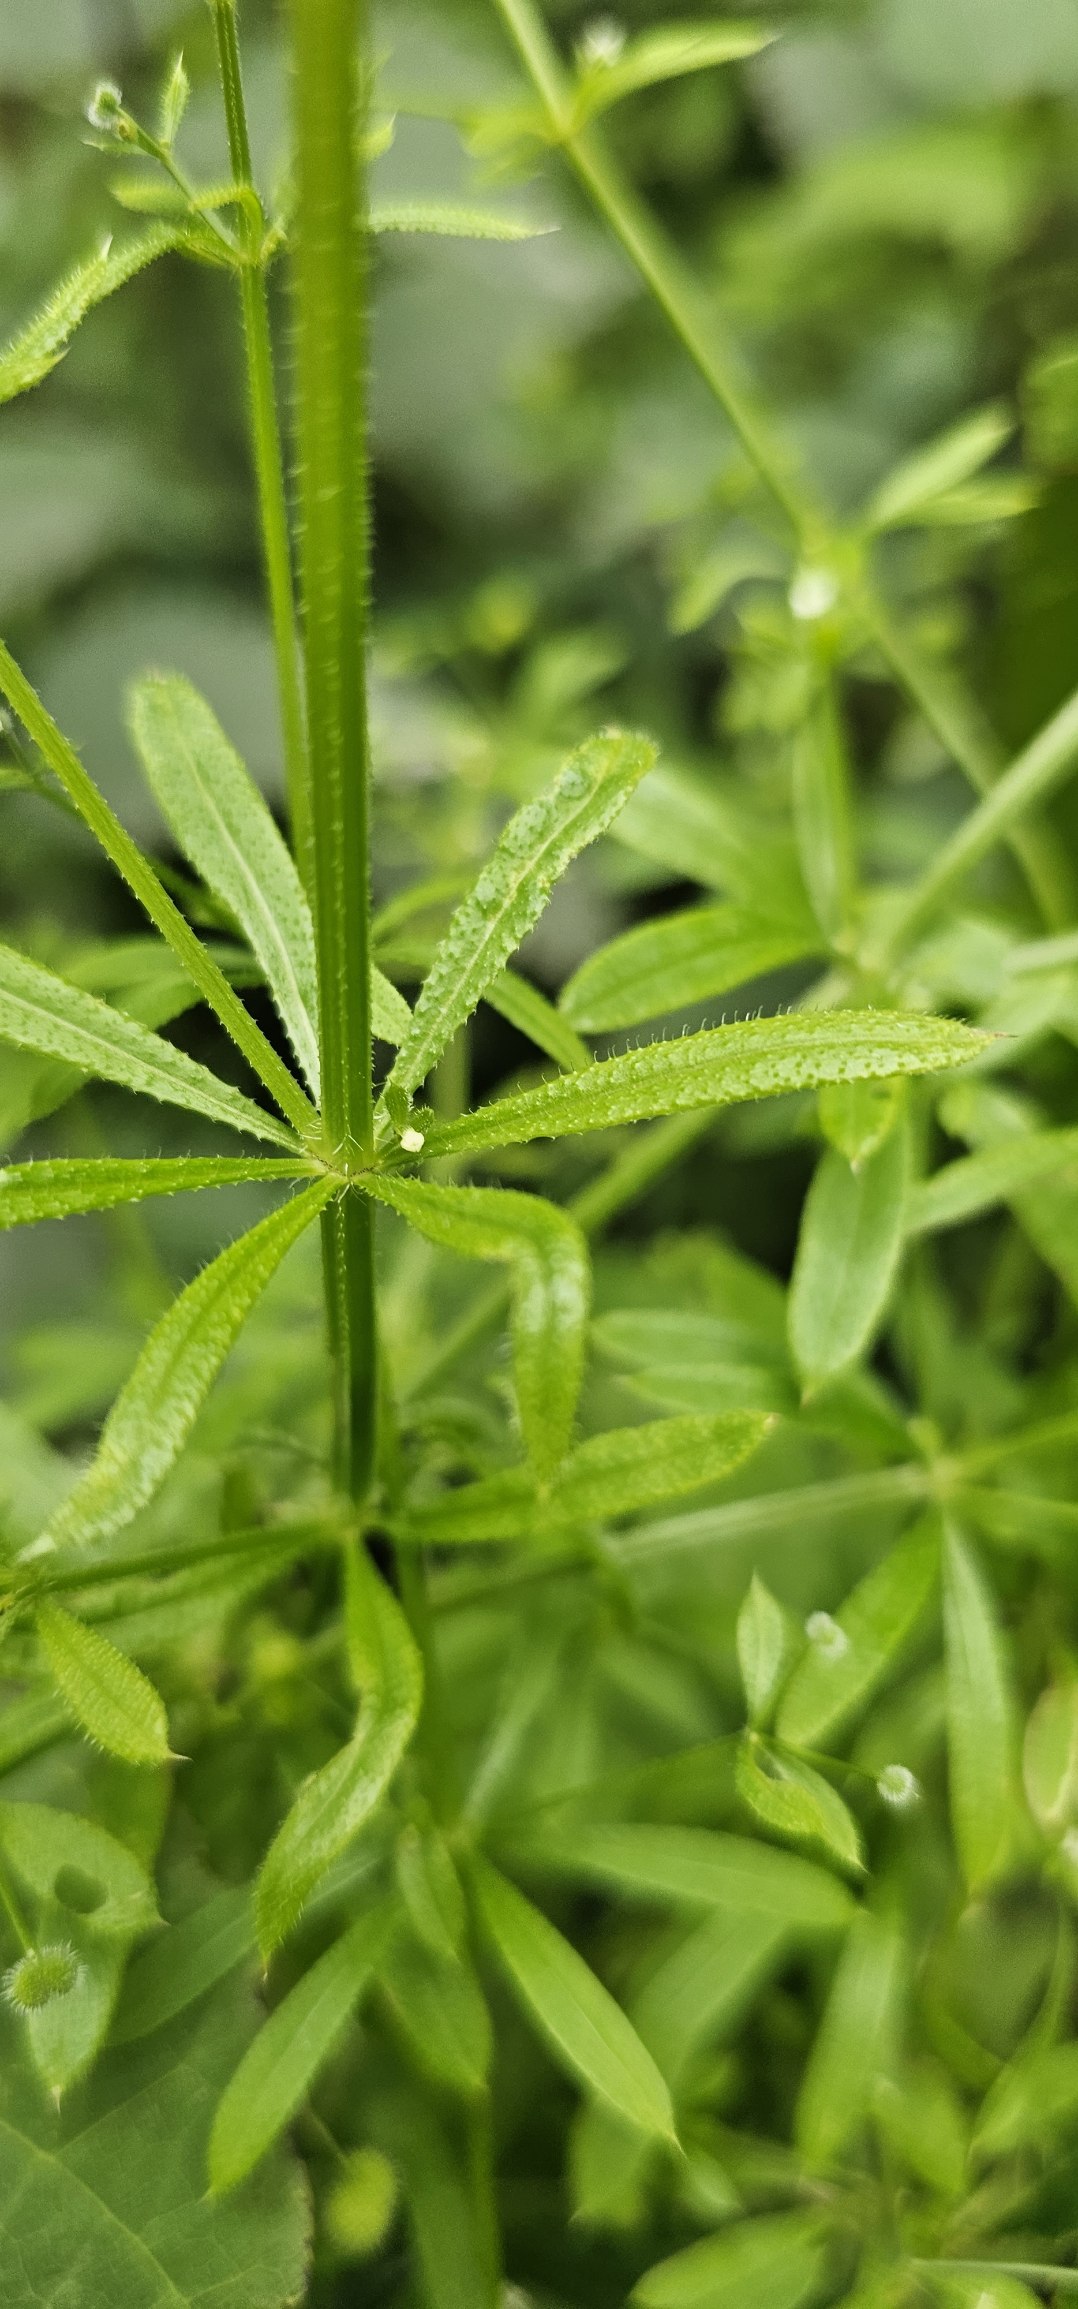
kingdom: Plantae
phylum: Tracheophyta
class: Magnoliopsida
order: Gentianales
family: Rubiaceae
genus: Galium
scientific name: Galium aparine
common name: Burre-snerre
